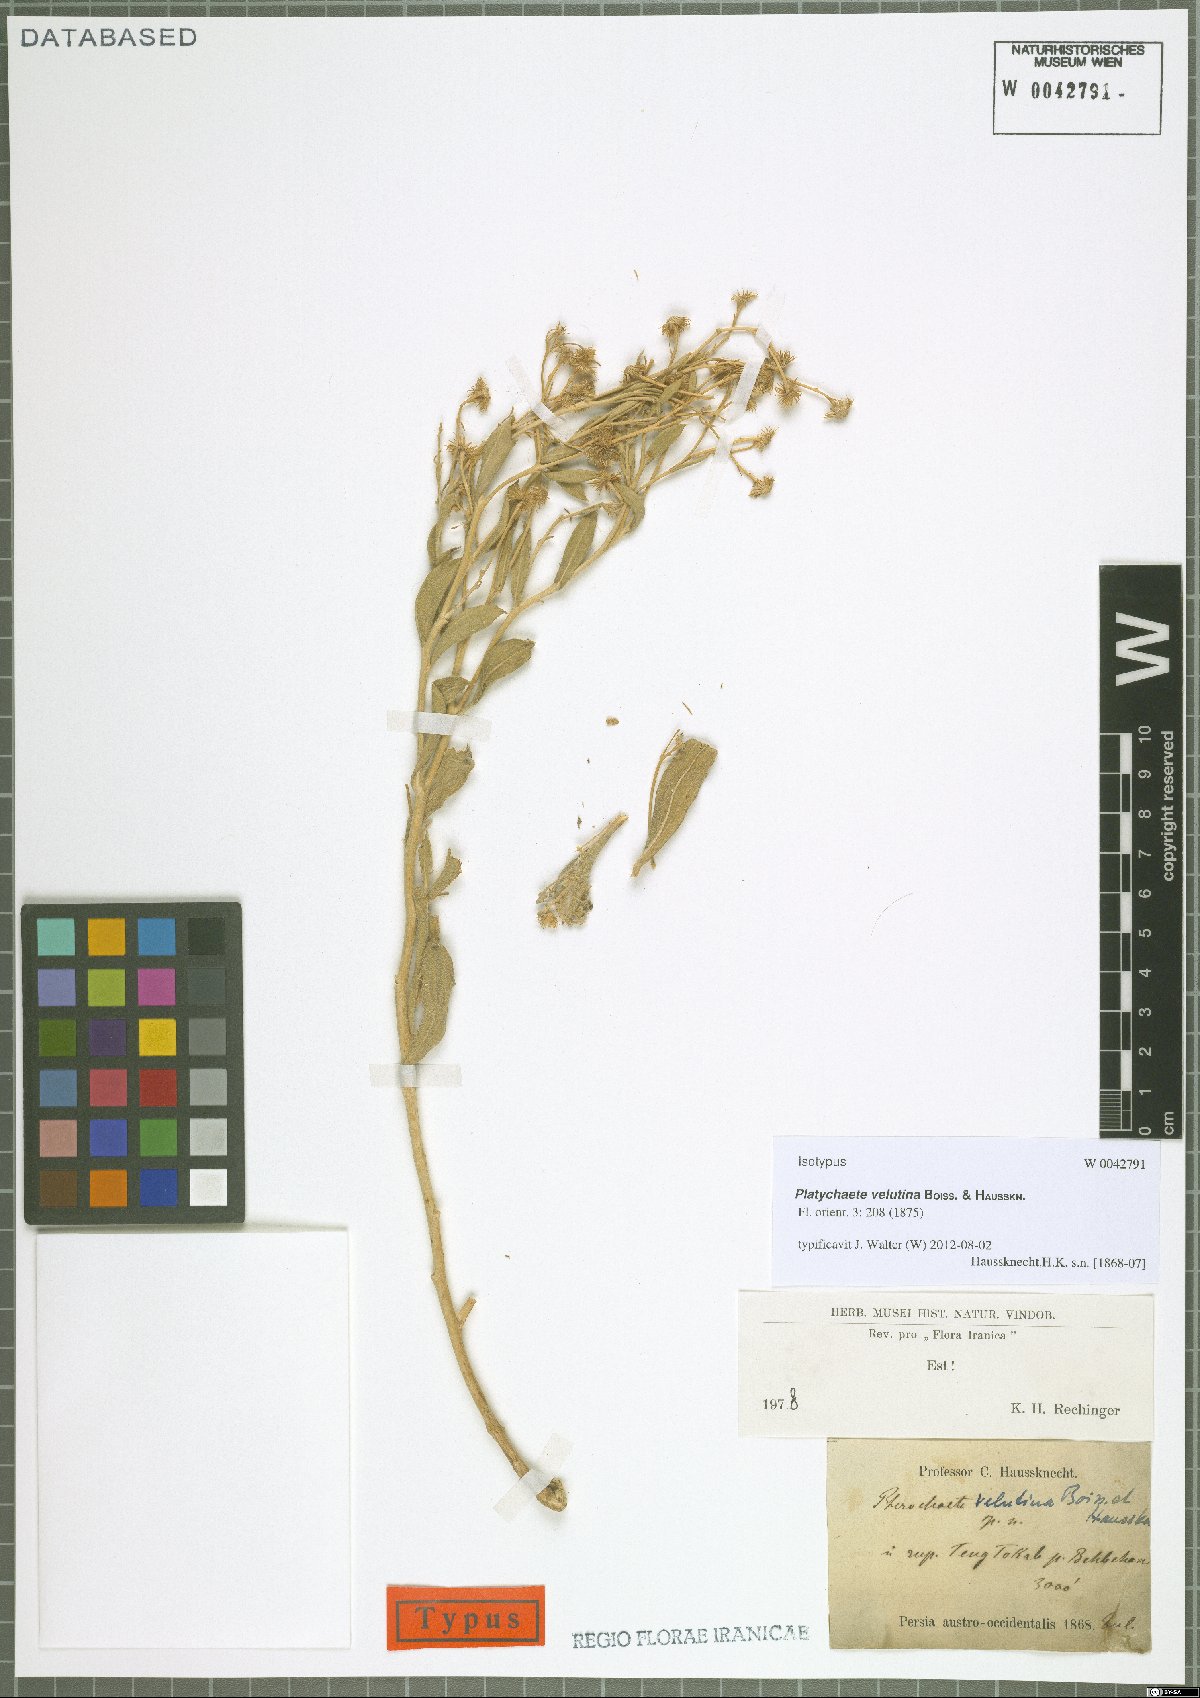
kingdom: Plantae
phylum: Tracheophyta
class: Magnoliopsida
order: Asterales
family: Asteraceae
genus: Pulicaria
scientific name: Pulicaria velutina
